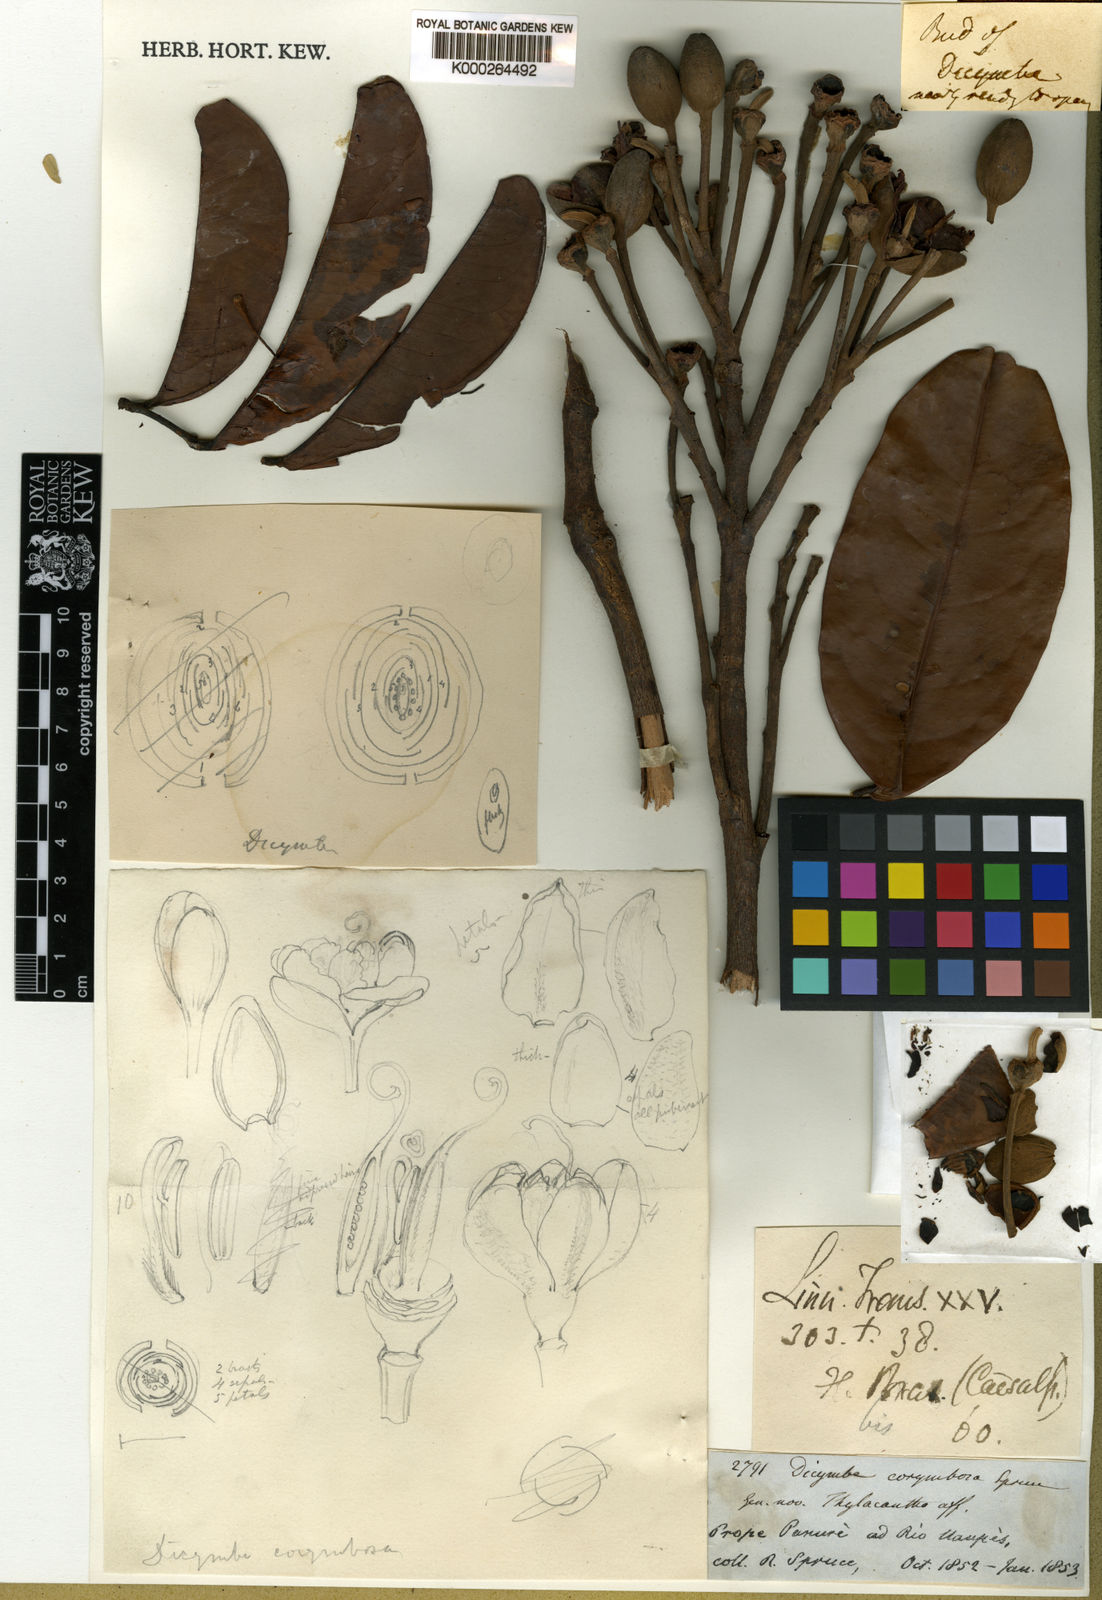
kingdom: Plantae
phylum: Tracheophyta
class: Magnoliopsida
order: Fabales
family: Fabaceae
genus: Dicymbe
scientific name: Dicymbe corymbosa
